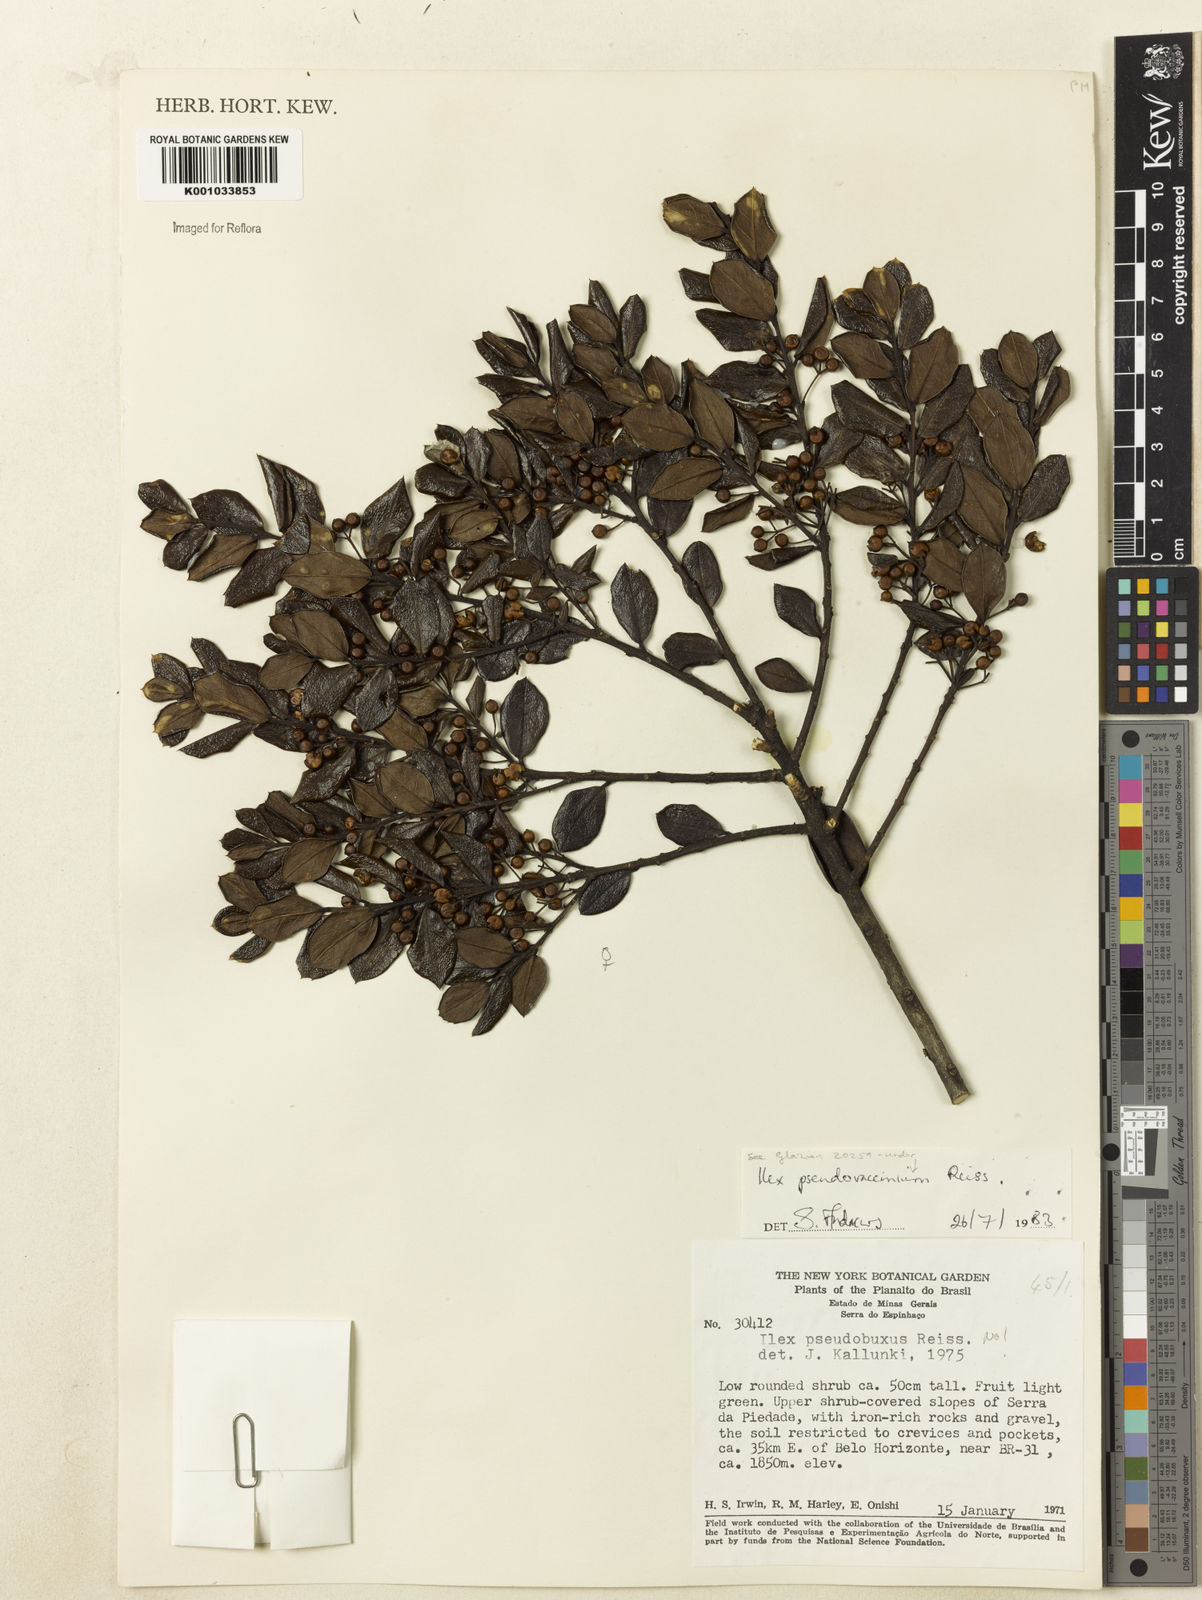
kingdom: Plantae
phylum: Tracheophyta
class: Magnoliopsida
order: Aquifoliales
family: Aquifoliaceae
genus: Ilex
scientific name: Ilex pseudovaccinium
